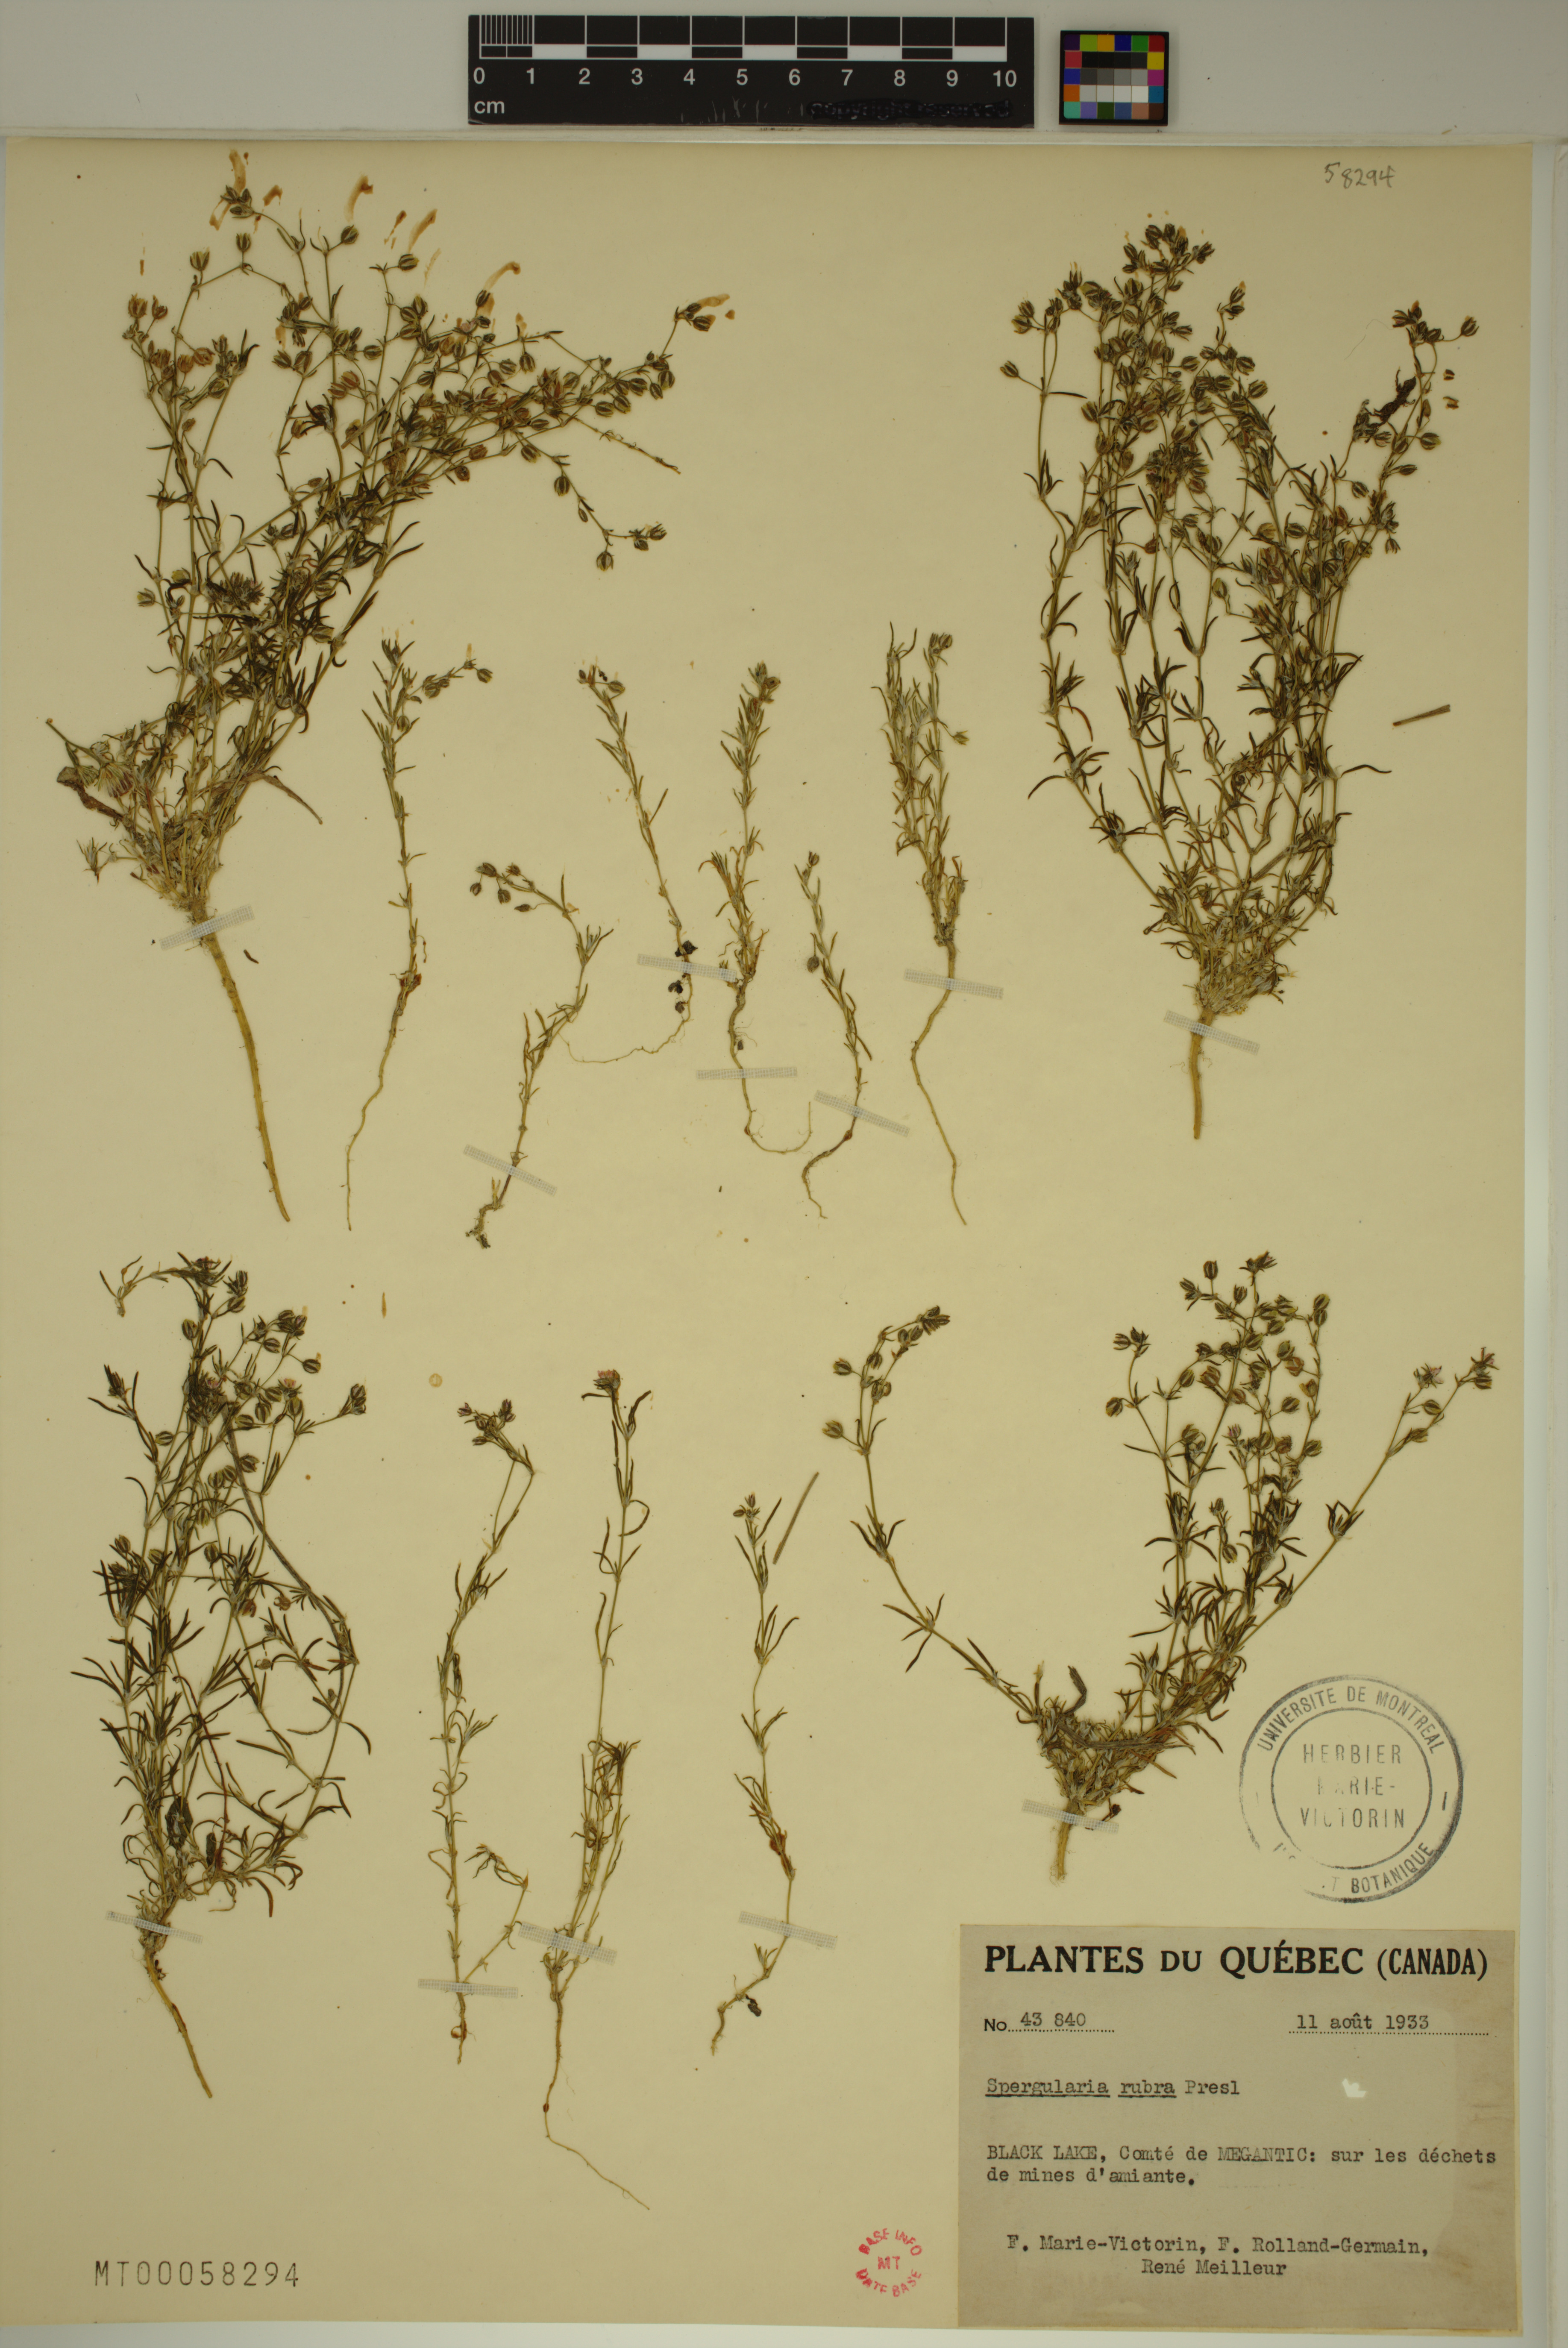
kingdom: Plantae
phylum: Tracheophyta
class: Magnoliopsida
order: Caryophyllales
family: Caryophyllaceae
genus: Spergularia
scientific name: Spergularia rubra
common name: Red sand-spurrey
